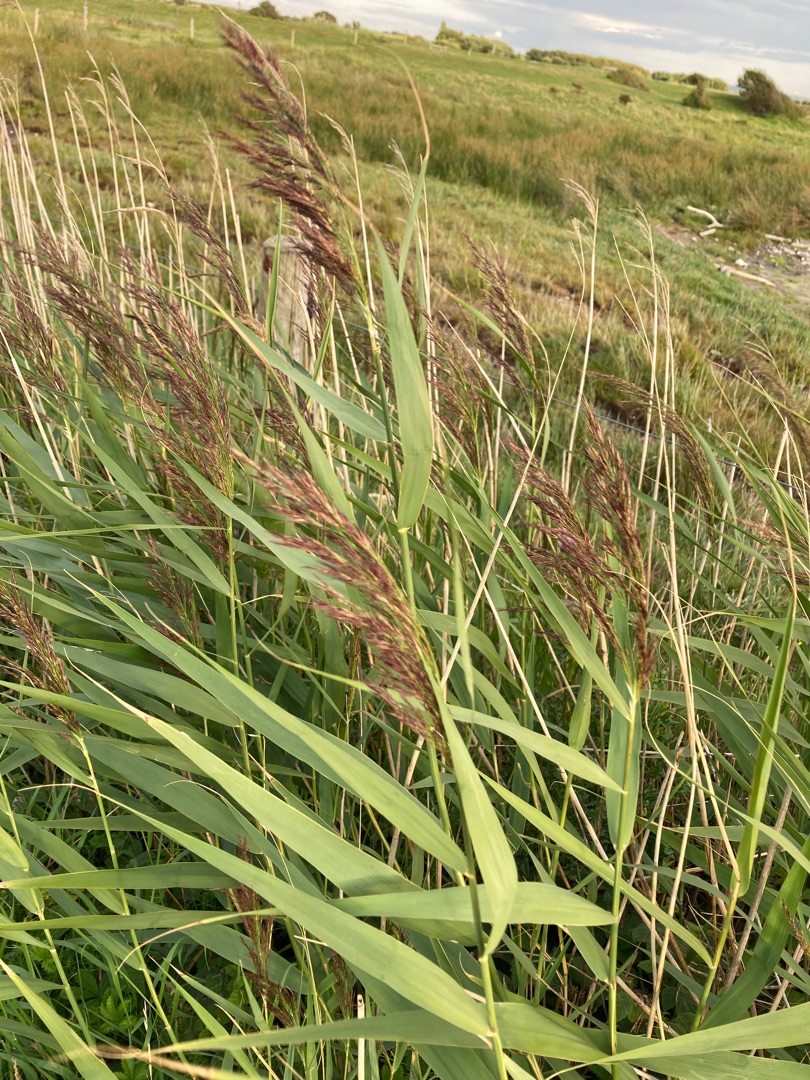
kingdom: Plantae
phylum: Tracheophyta
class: Liliopsida
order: Poales
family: Poaceae
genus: Phragmites
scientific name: Phragmites australis
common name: Tagrør
